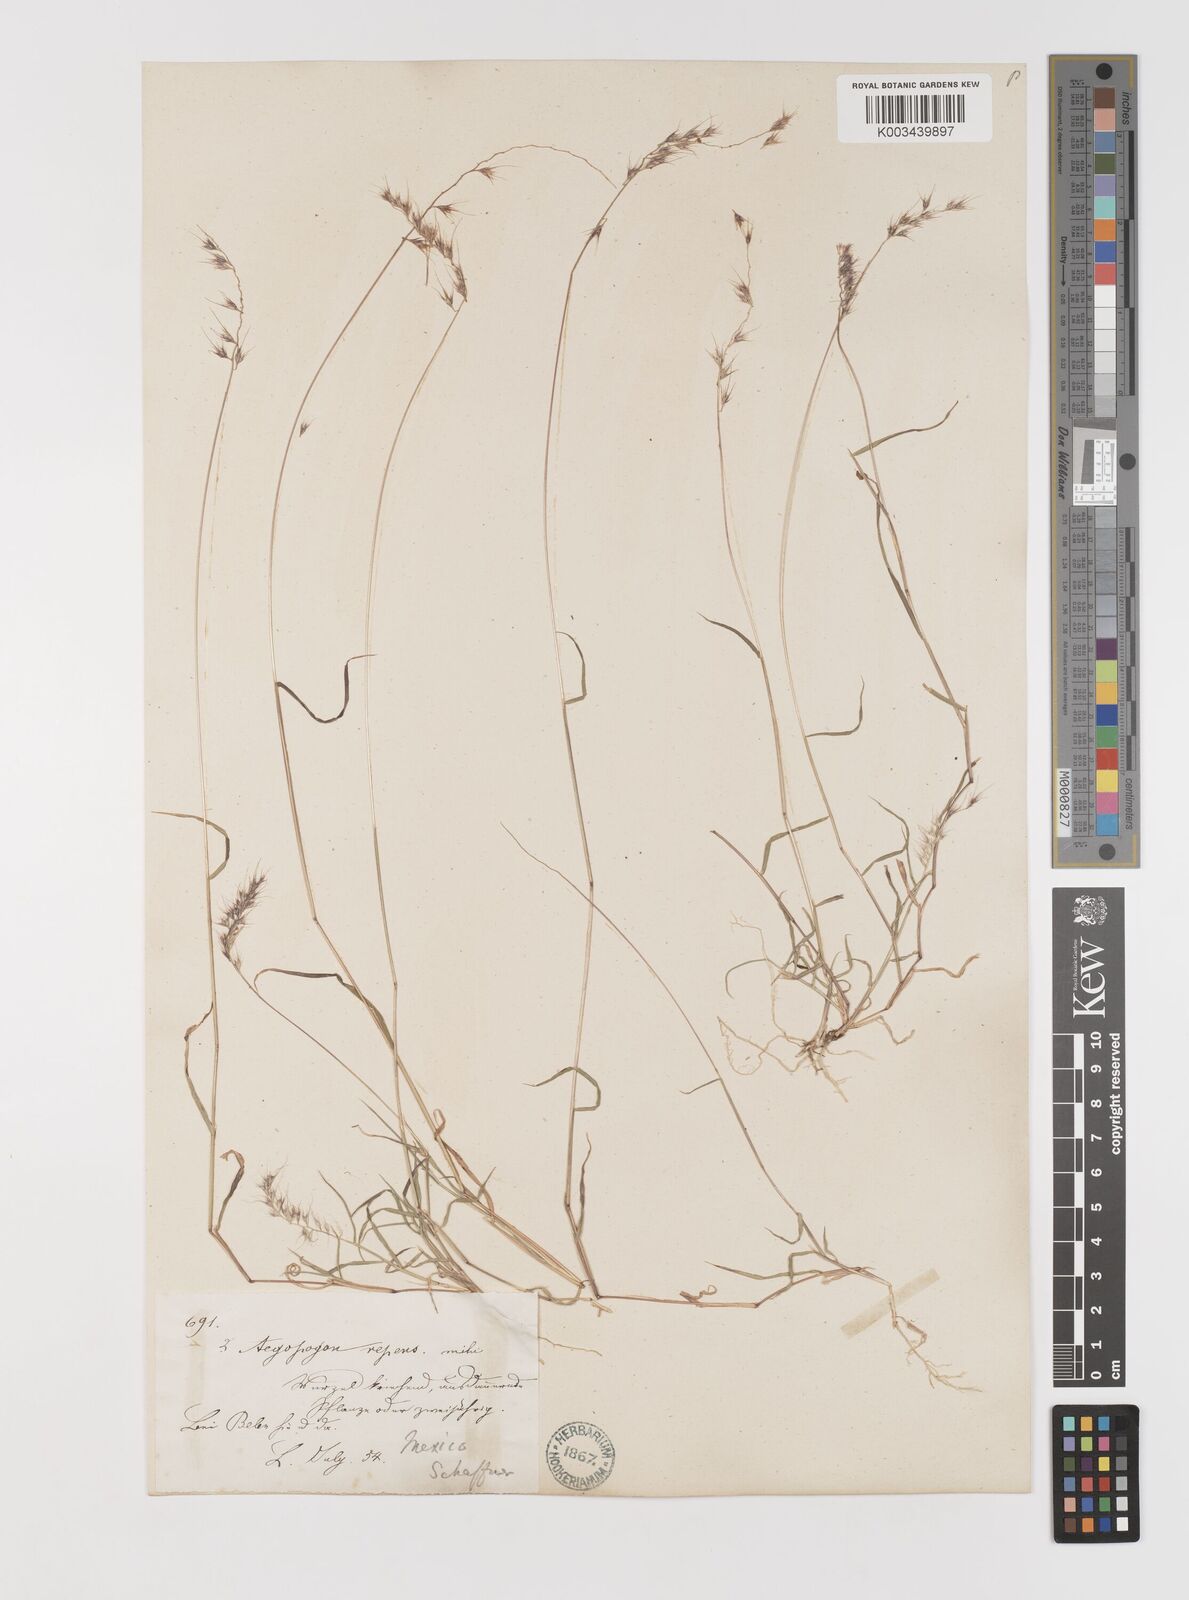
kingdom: Plantae
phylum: Tracheophyta
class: Liliopsida
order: Poales
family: Poaceae
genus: Muhlenbergia
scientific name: Muhlenbergia cenchroides
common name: Relaxgrass
